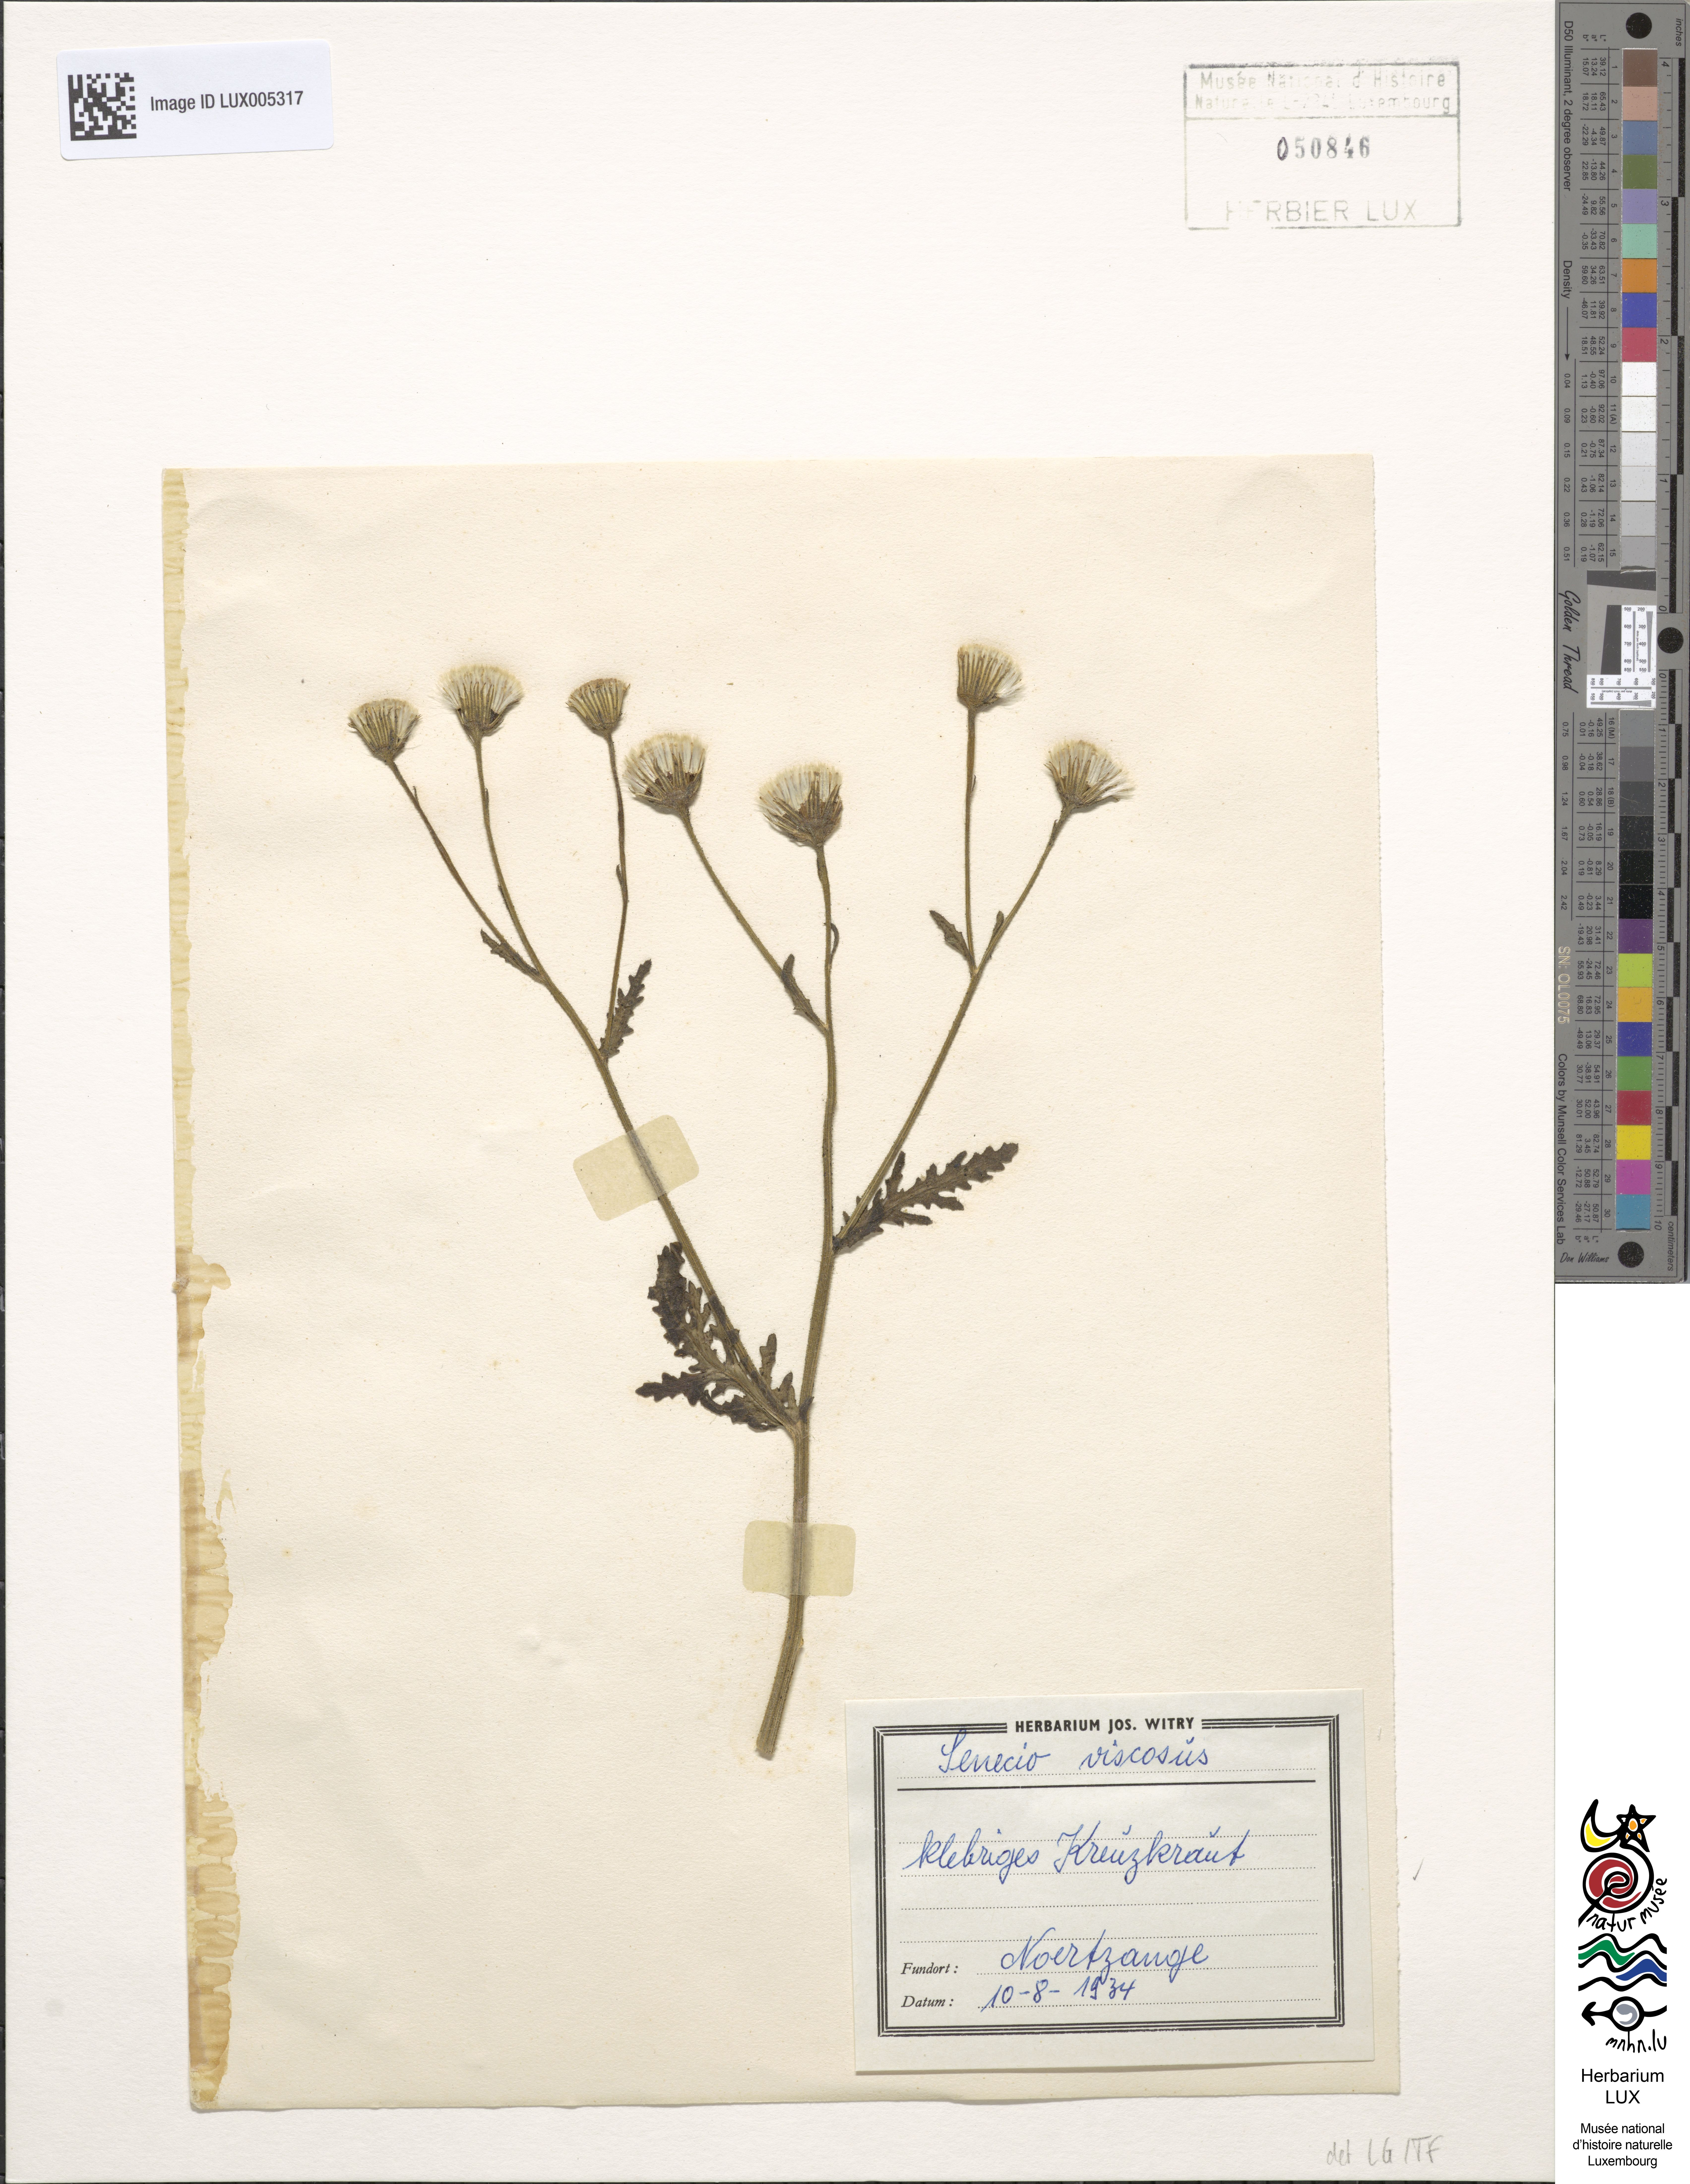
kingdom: Plantae
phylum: Tracheophyta
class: Magnoliopsida
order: Asterales
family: Asteraceae
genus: Senecio
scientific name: Senecio viscosus
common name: Sticky groundsel
